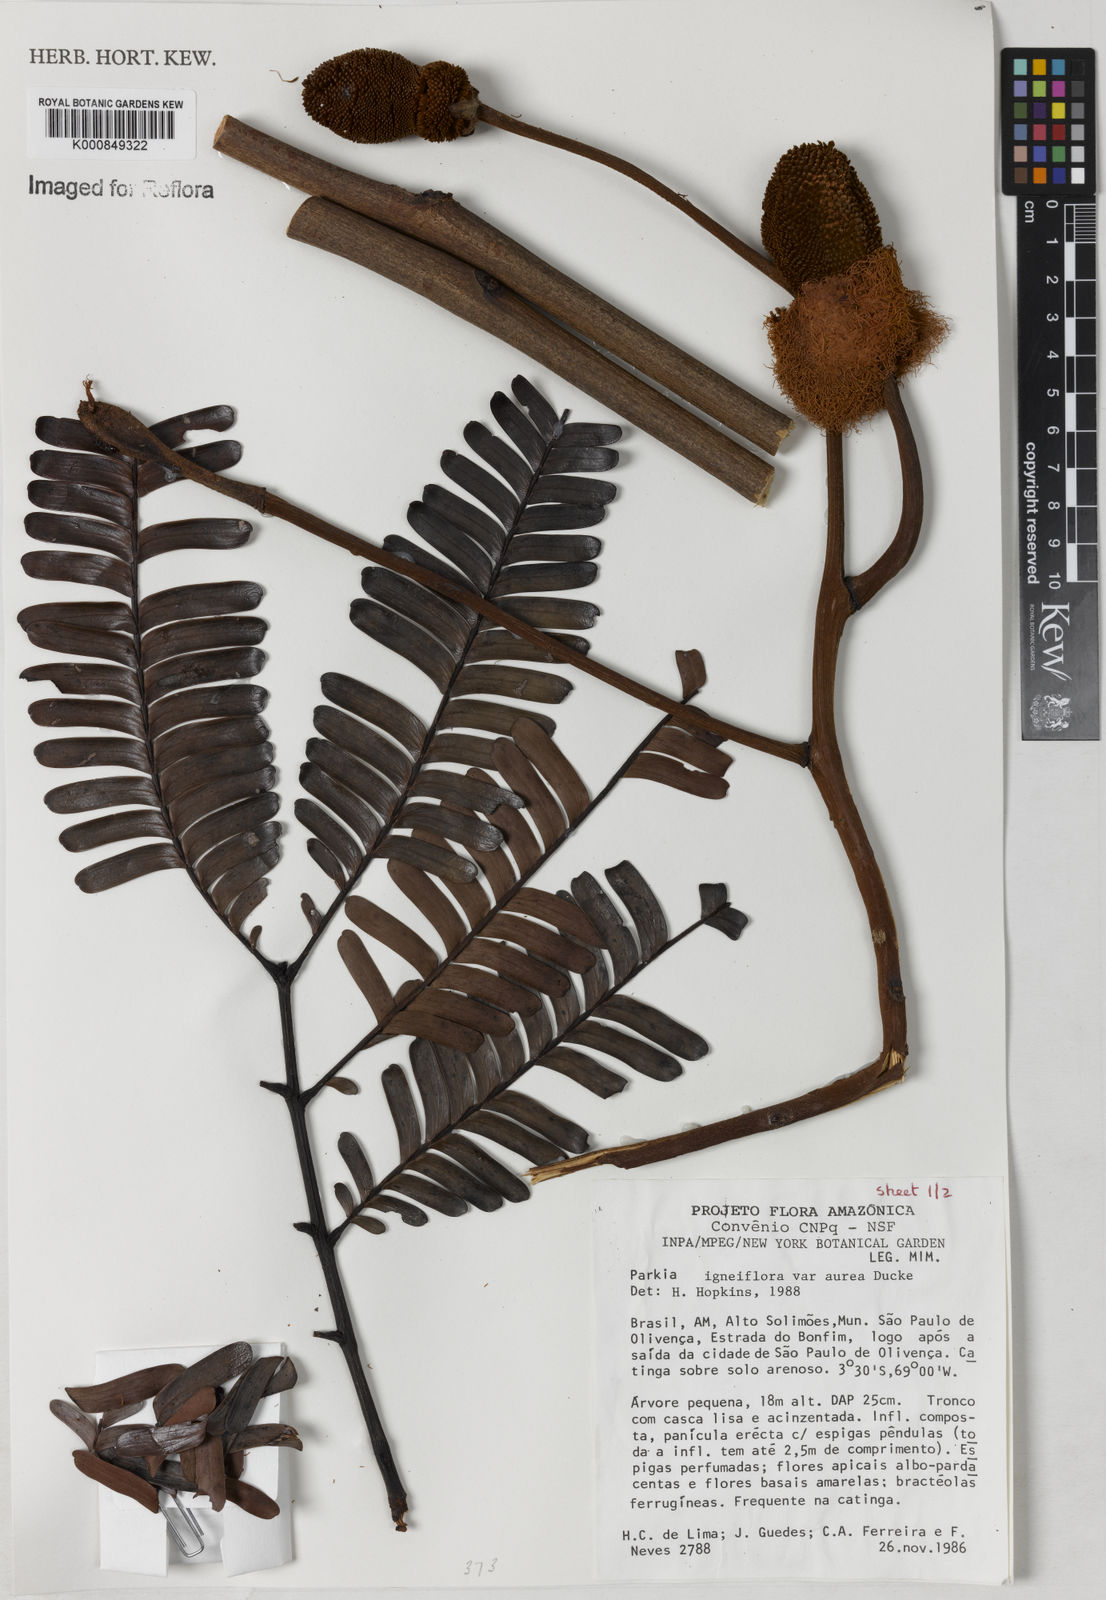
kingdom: Plantae
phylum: Tracheophyta
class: Magnoliopsida
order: Fabales
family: Fabaceae
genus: Parkia
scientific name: Parkia igneiflora
